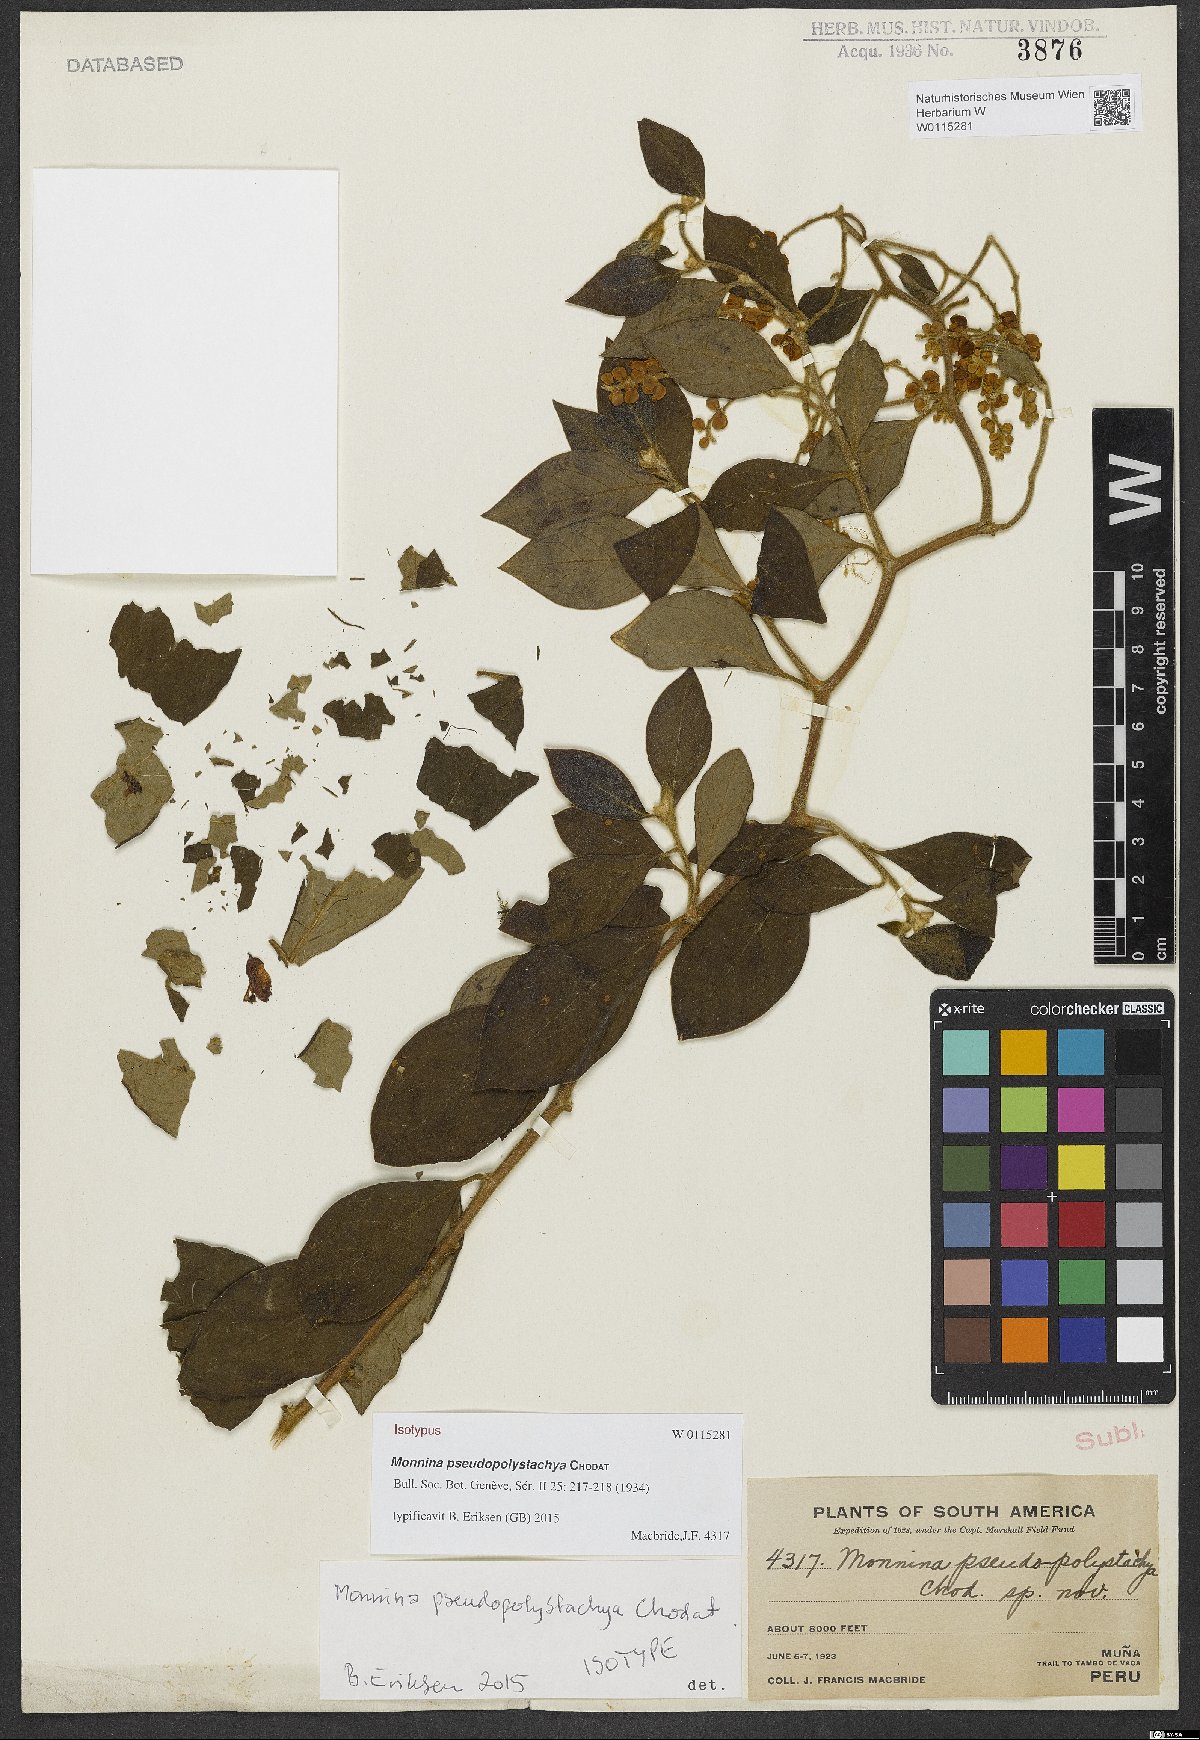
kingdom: Plantae
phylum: Tracheophyta
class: Magnoliopsida
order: Fabales
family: Polygalaceae
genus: Monnina
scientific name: Monnina pseudopolystachya
